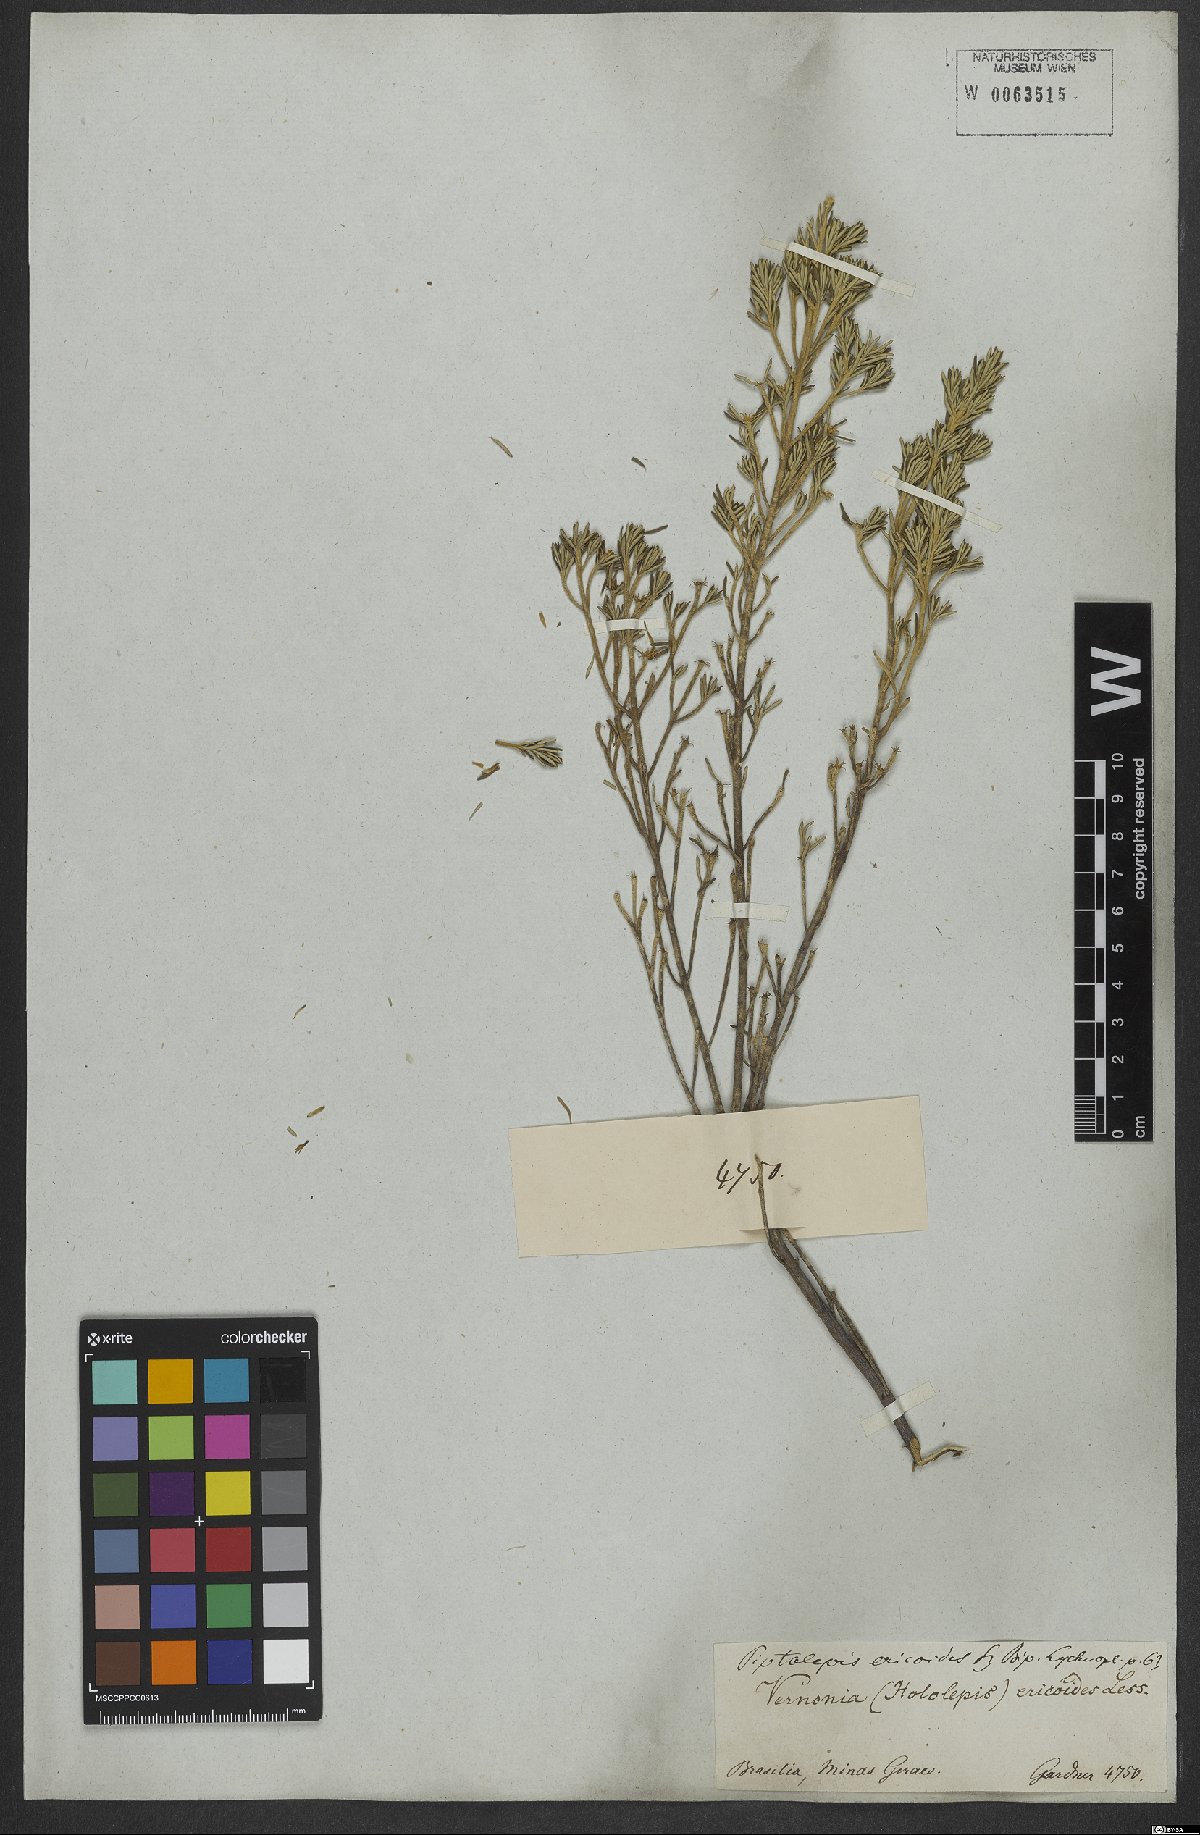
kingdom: Plantae
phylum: Tracheophyta
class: Magnoliopsida
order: Asterales
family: Asteraceae
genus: Piptolepis
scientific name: Piptolepis ericoides
